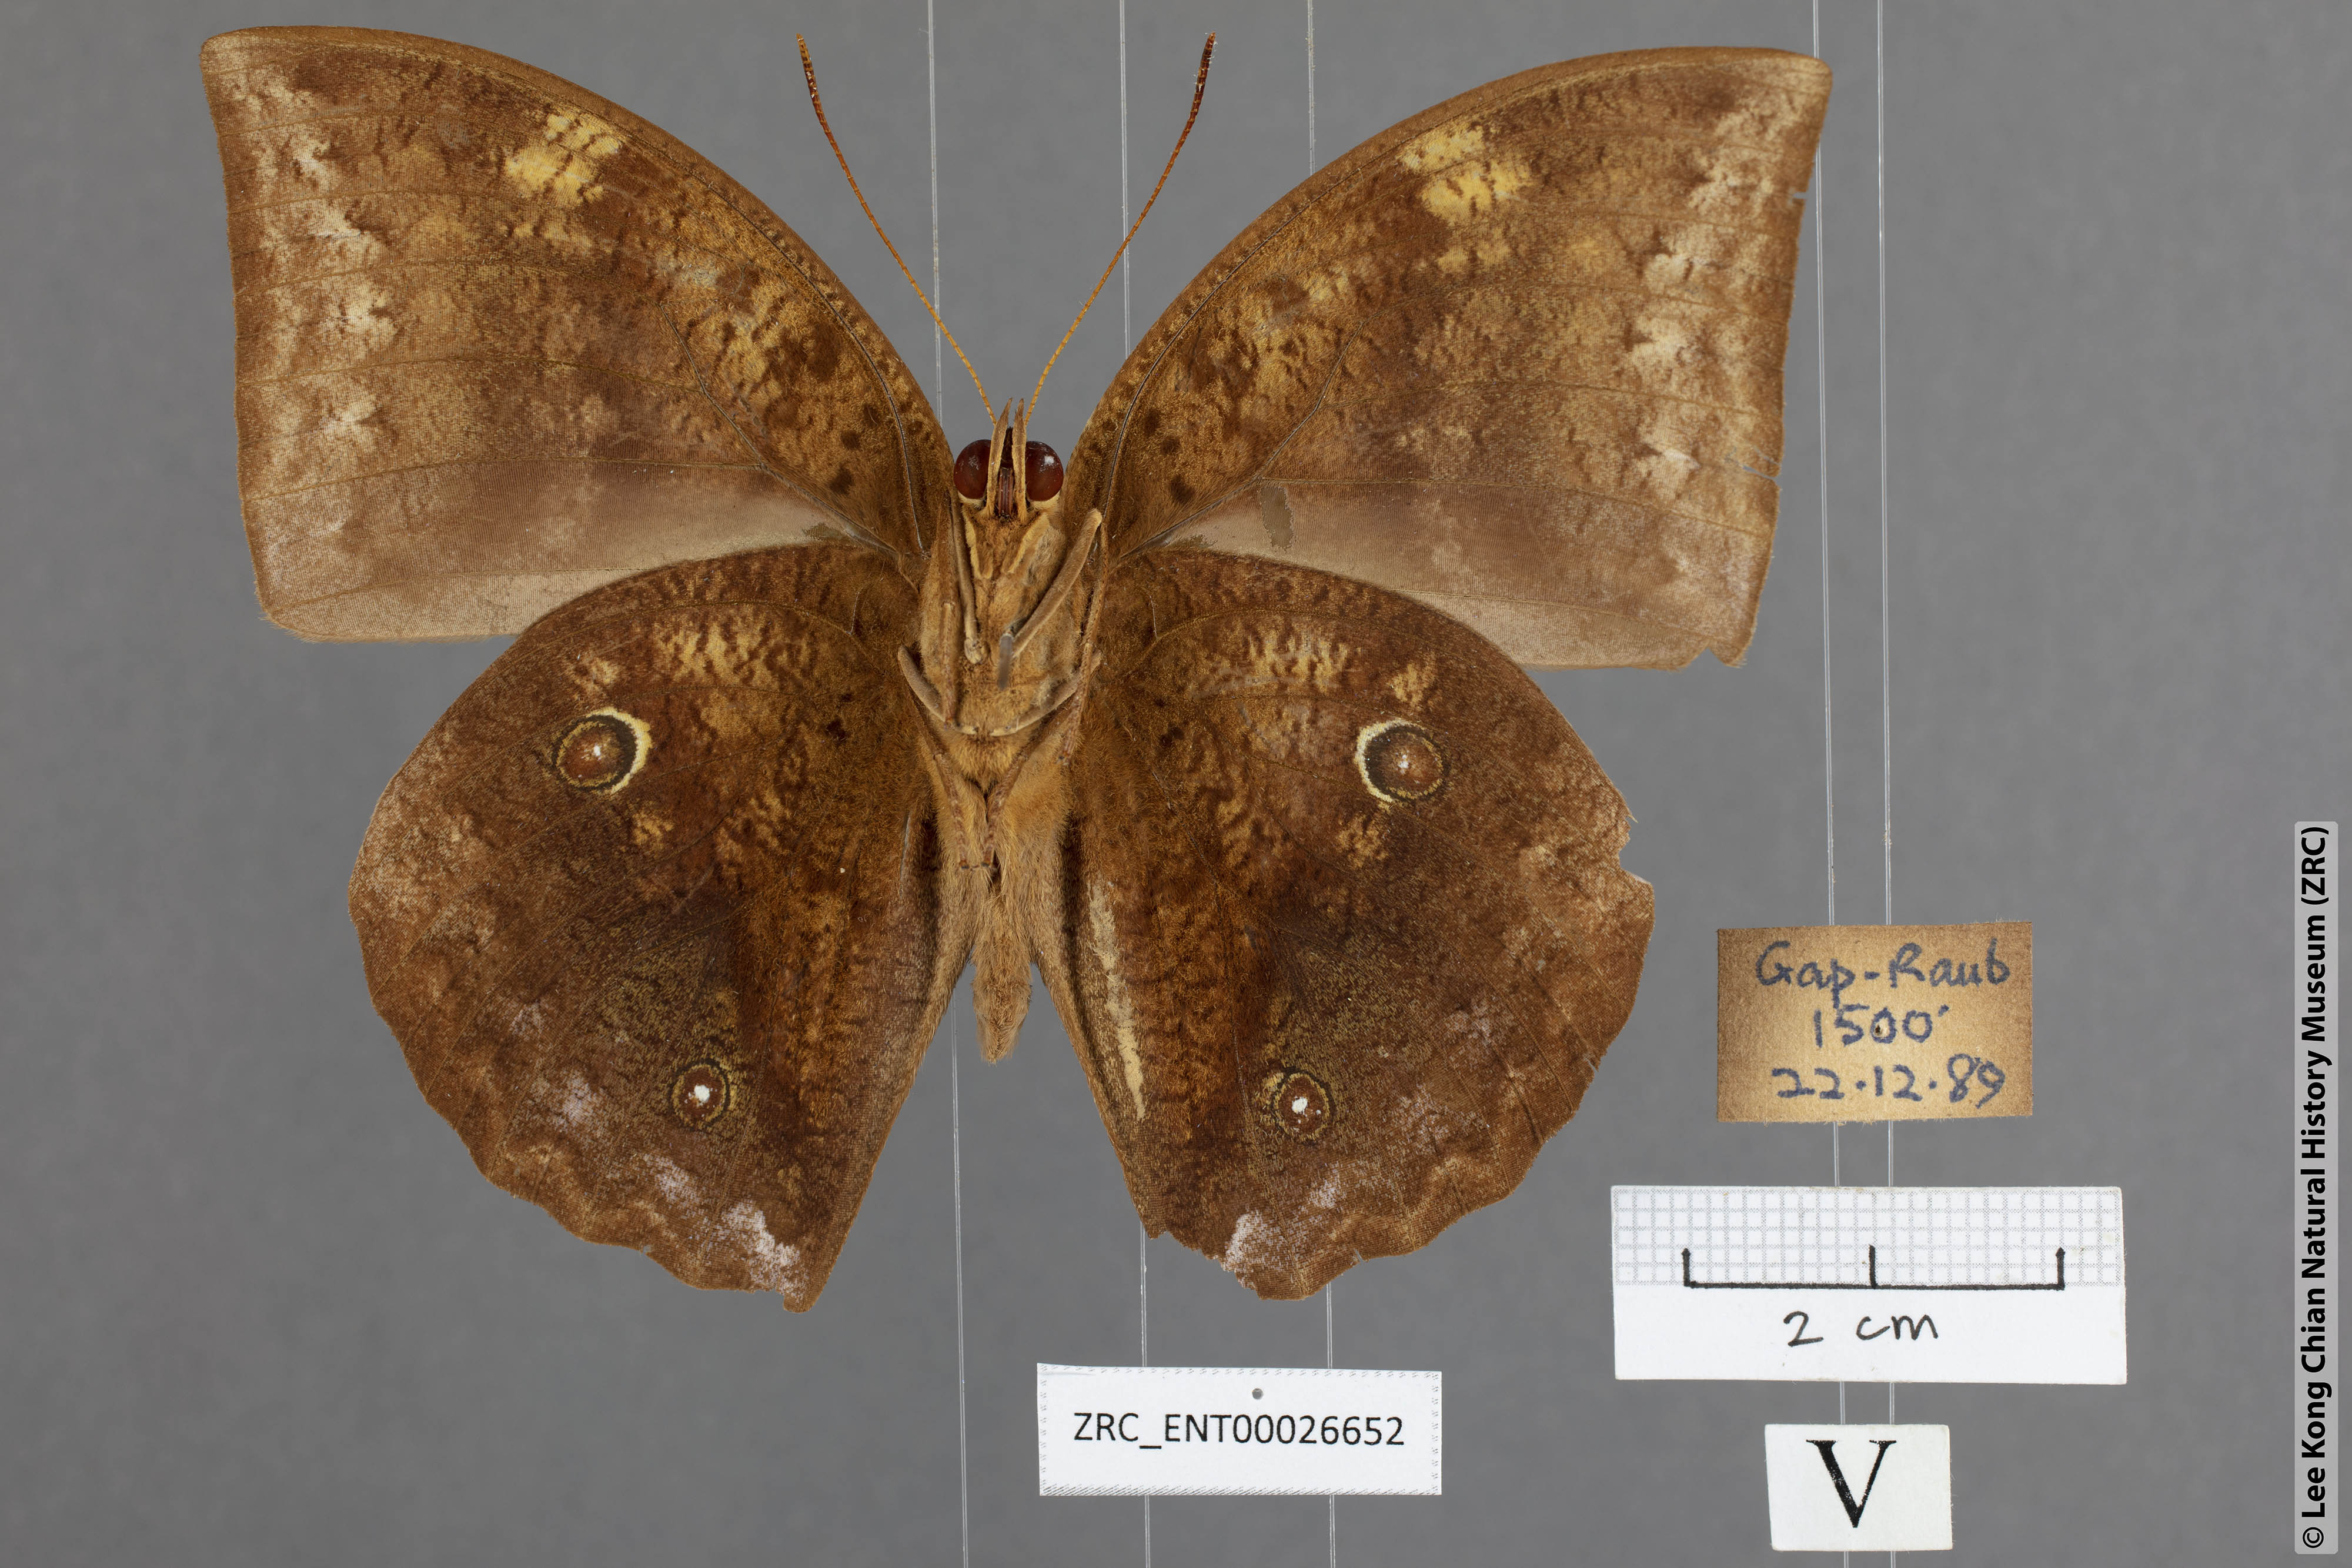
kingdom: Animalia
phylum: Arthropoda
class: Insecta
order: Lepidoptera
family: Nymphalidae
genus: Discophora
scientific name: Discophora timora
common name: Great duffer
